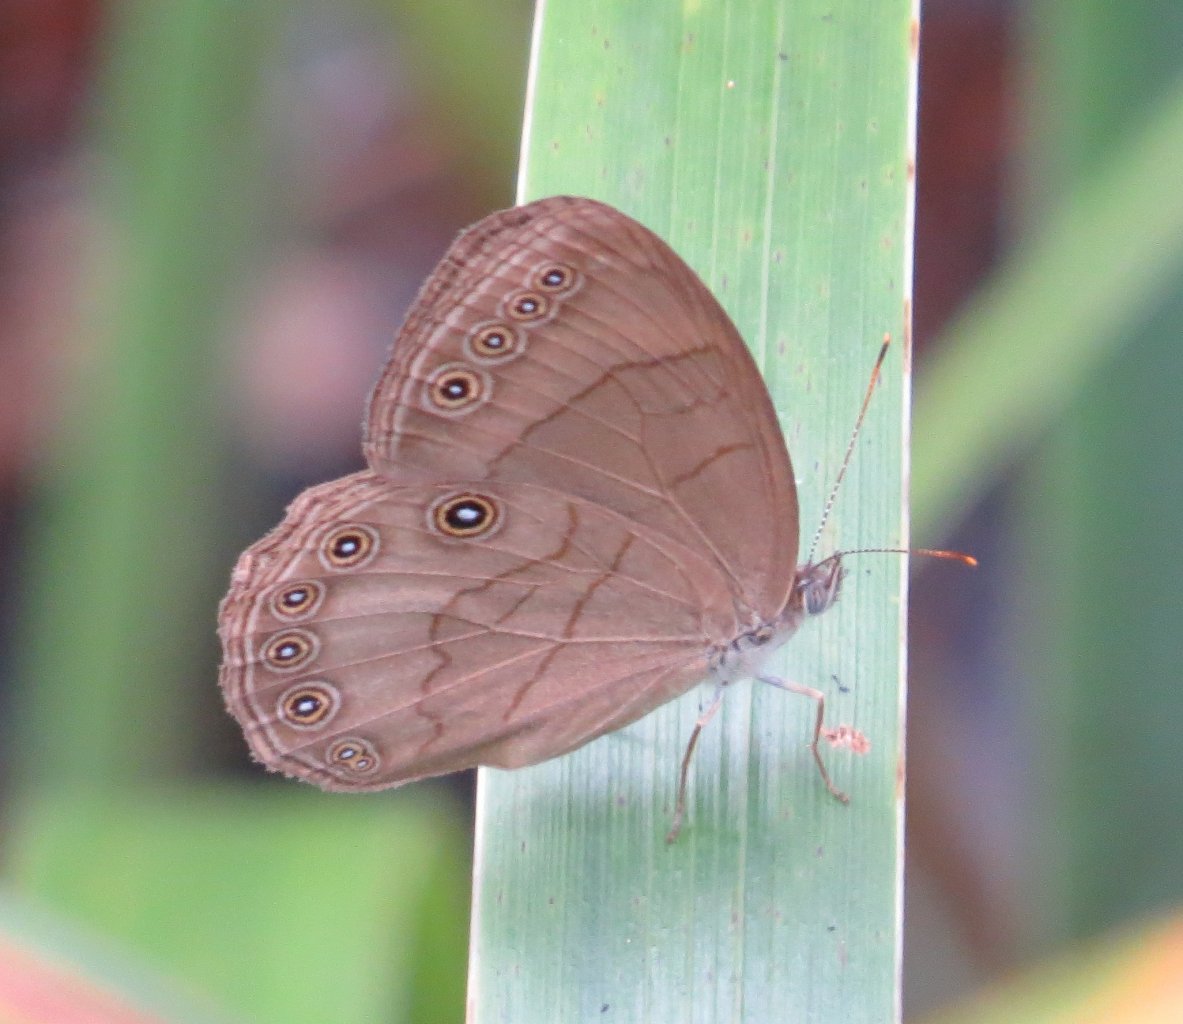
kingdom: Animalia
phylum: Arthropoda
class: Insecta
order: Lepidoptera
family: Nymphalidae
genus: Lethe
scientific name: Lethe eurydice
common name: Appalachian Eyed Brown
